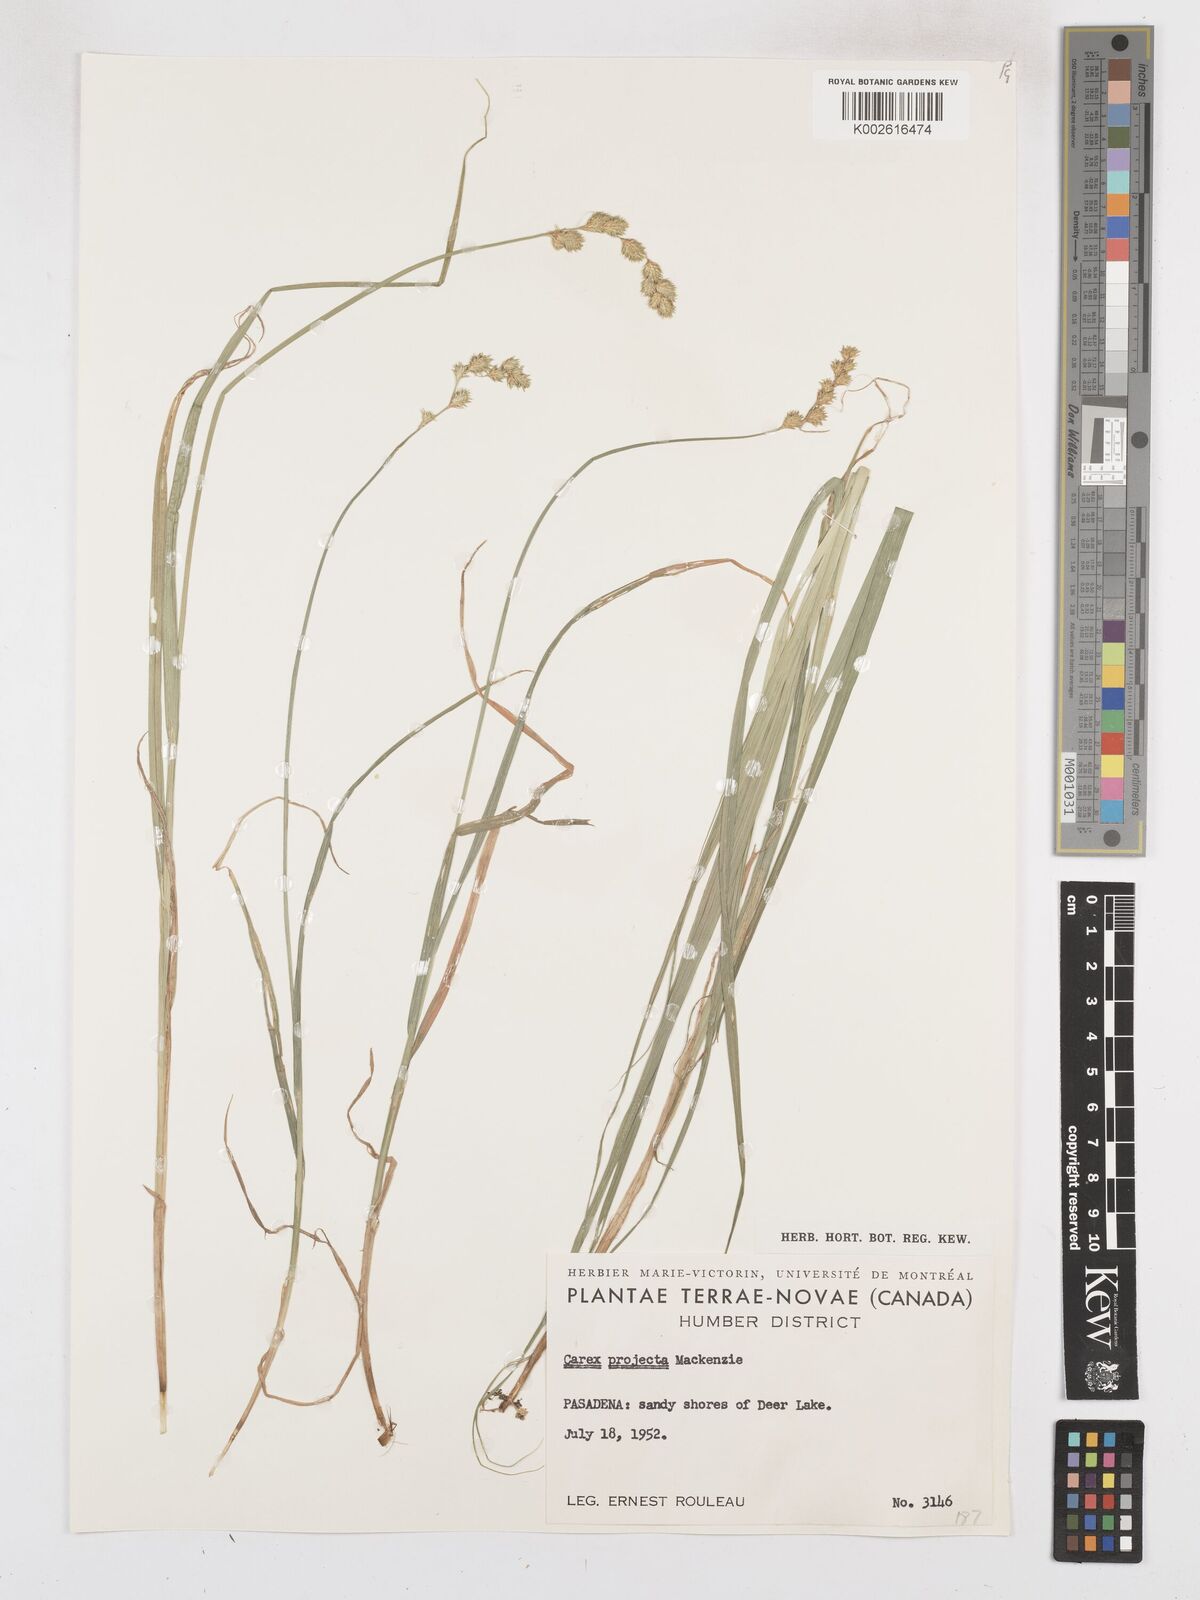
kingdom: Plantae
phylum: Tracheophyta
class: Liliopsida
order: Poales
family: Cyperaceae
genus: Carex
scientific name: Carex projecta
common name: Loose-headed oval sedge
